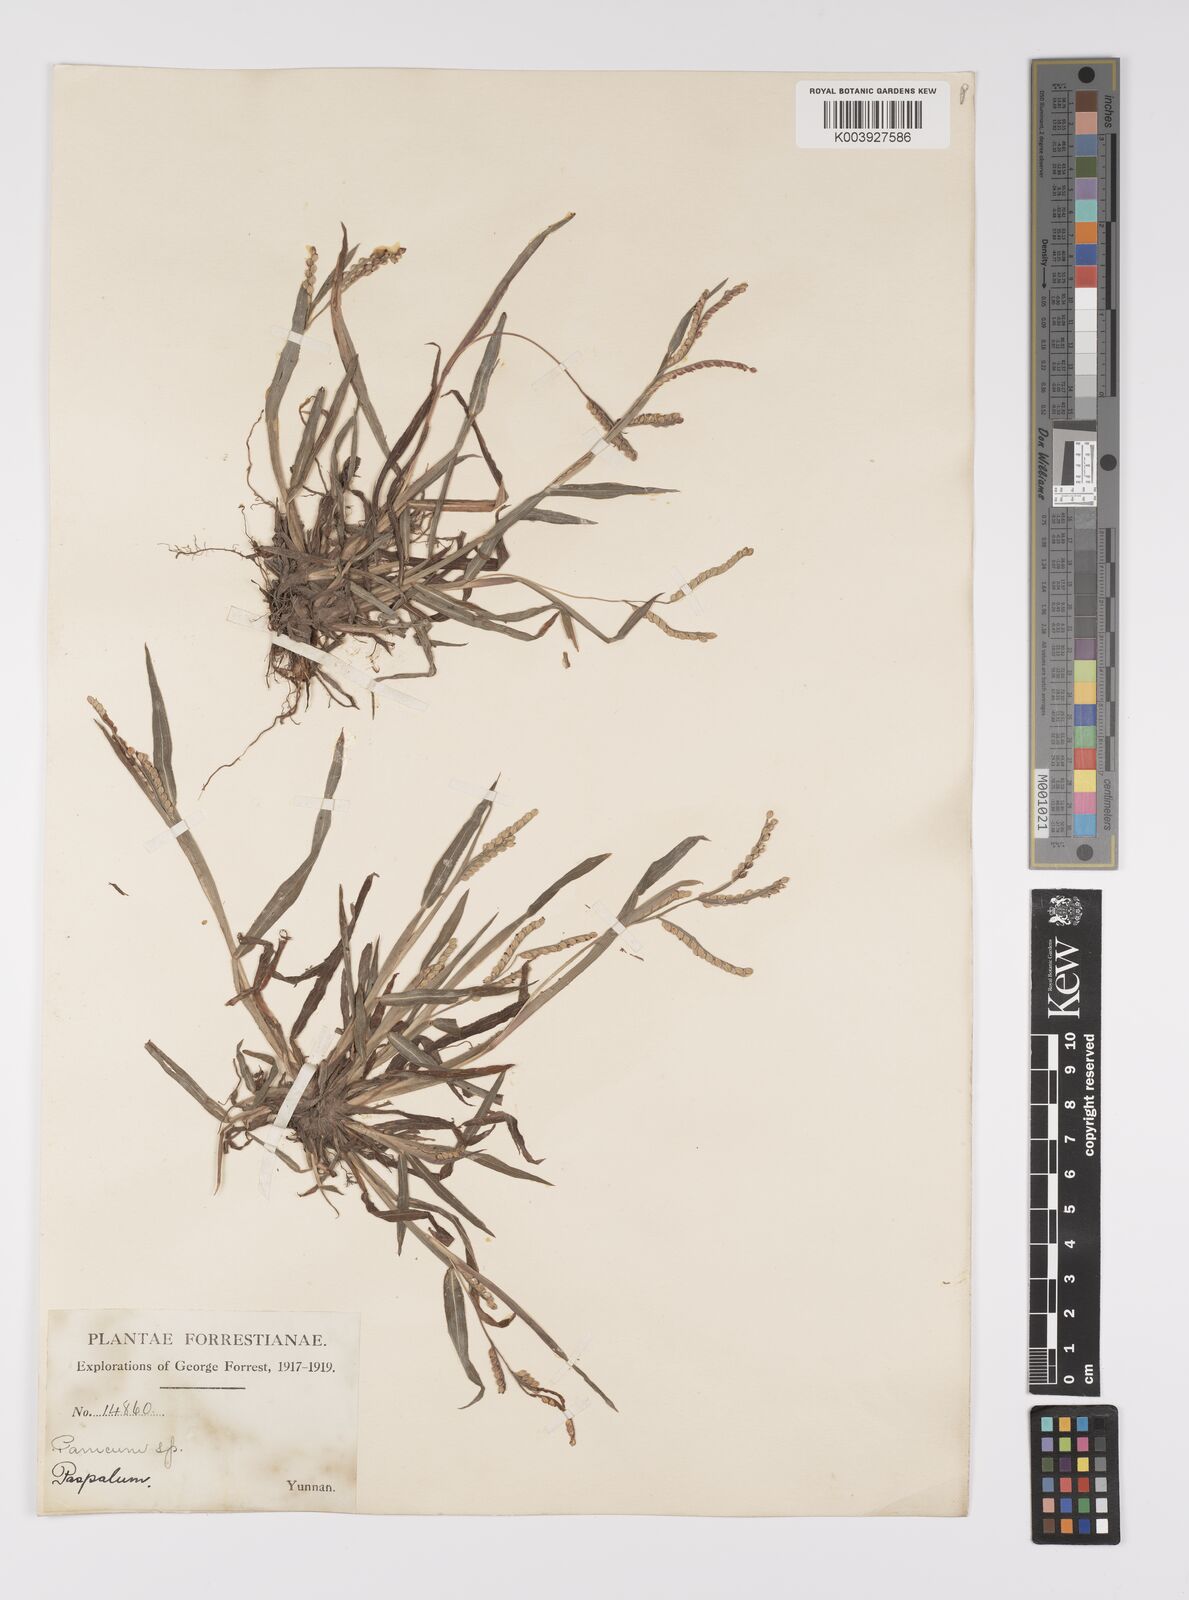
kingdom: Plantae
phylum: Tracheophyta
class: Liliopsida
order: Poales
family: Poaceae
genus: Paspalum
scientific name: Paspalum thunbergii
